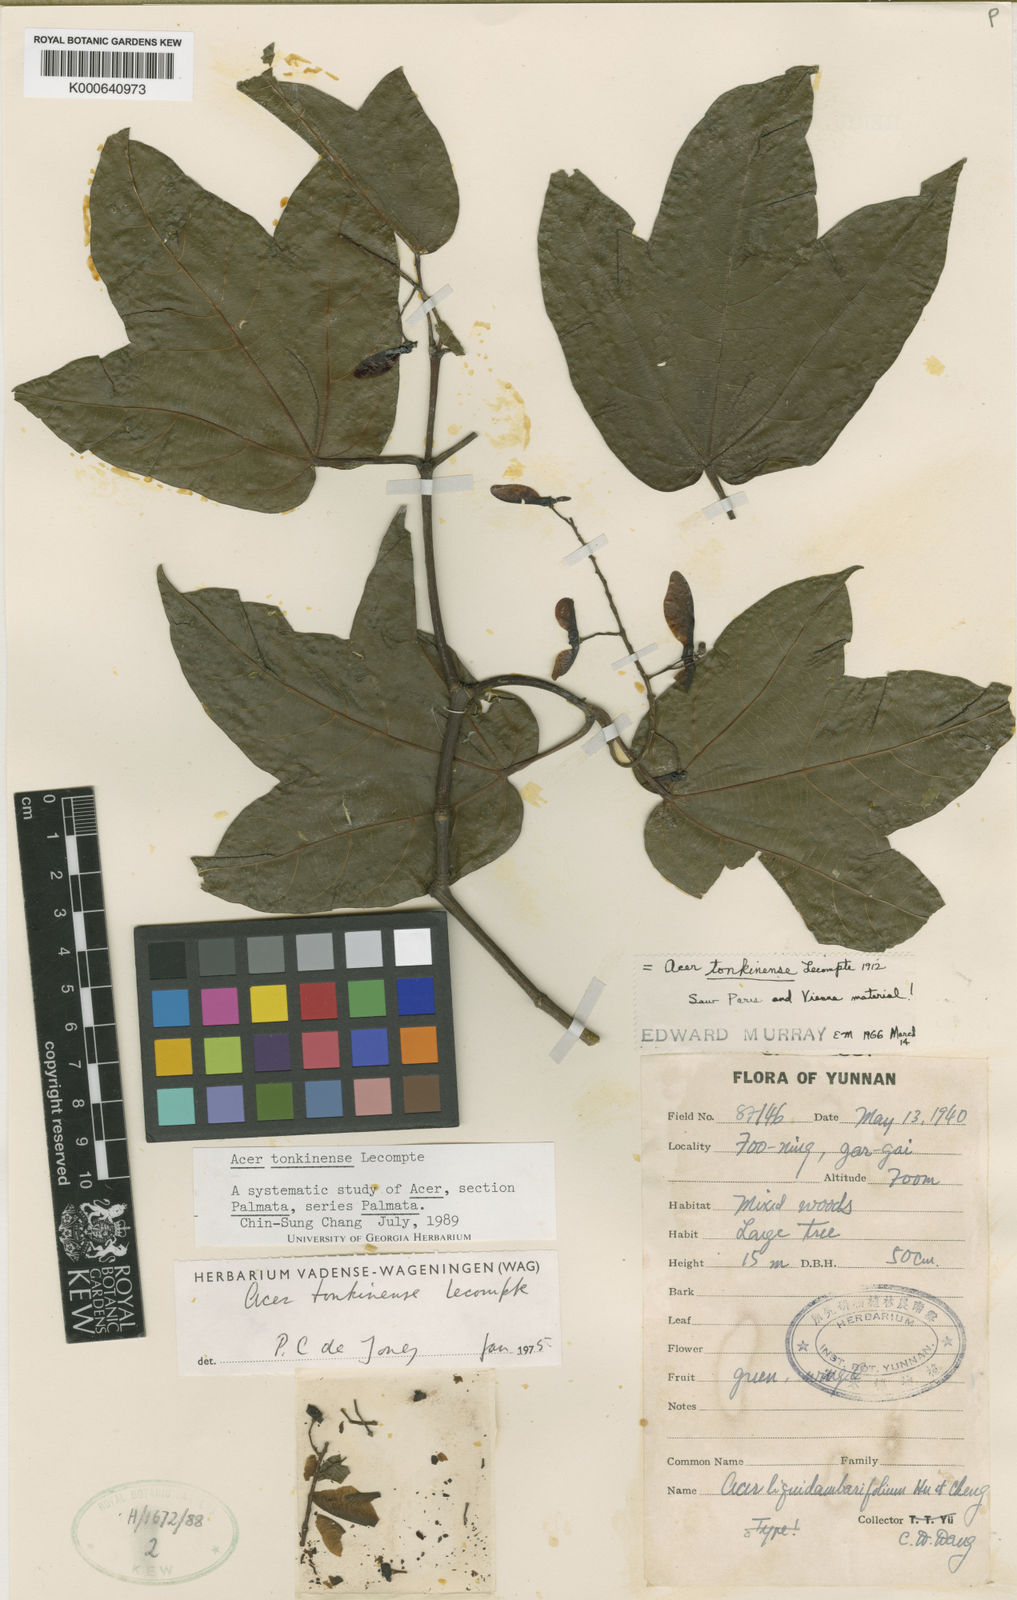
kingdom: Plantae
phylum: Tracheophyta
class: Magnoliopsida
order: Sapindales
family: Sapindaceae
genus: Acer
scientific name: Acer tonkinense
